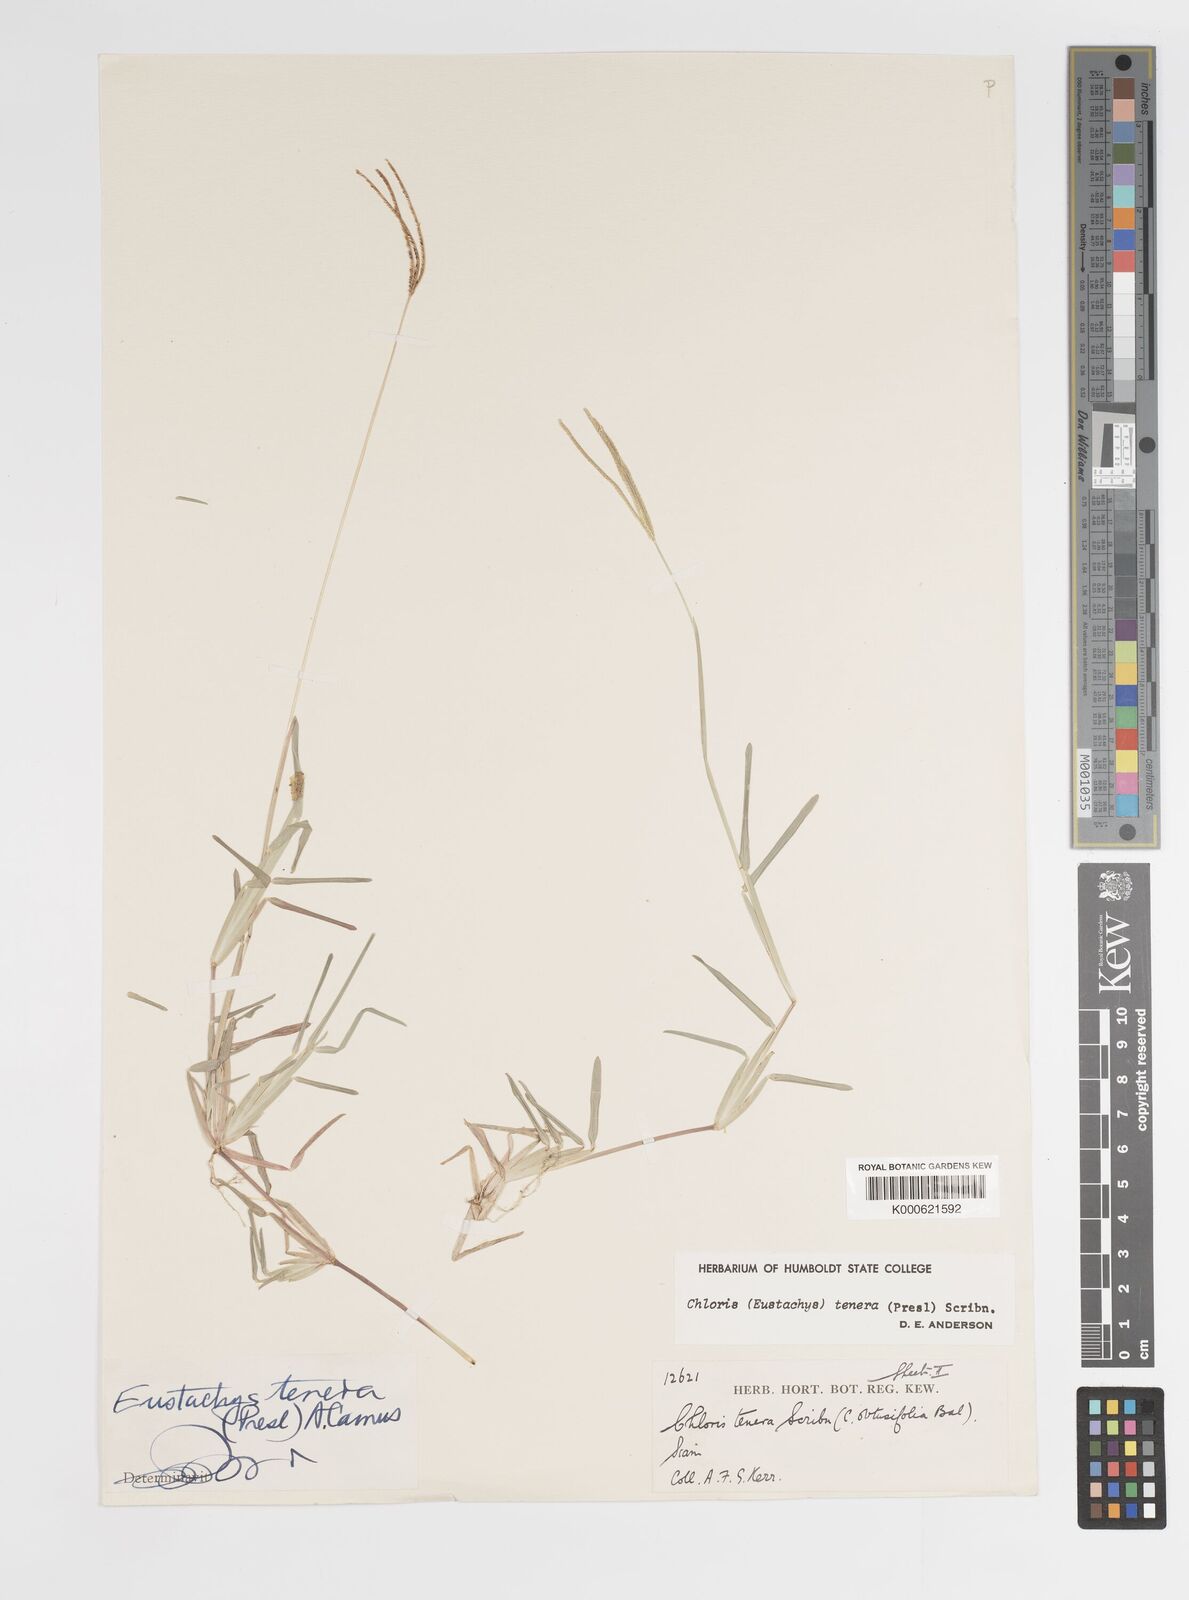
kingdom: Plantae
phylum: Tracheophyta
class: Liliopsida
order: Poales
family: Poaceae
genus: Eustachys
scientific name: Eustachys tenera
